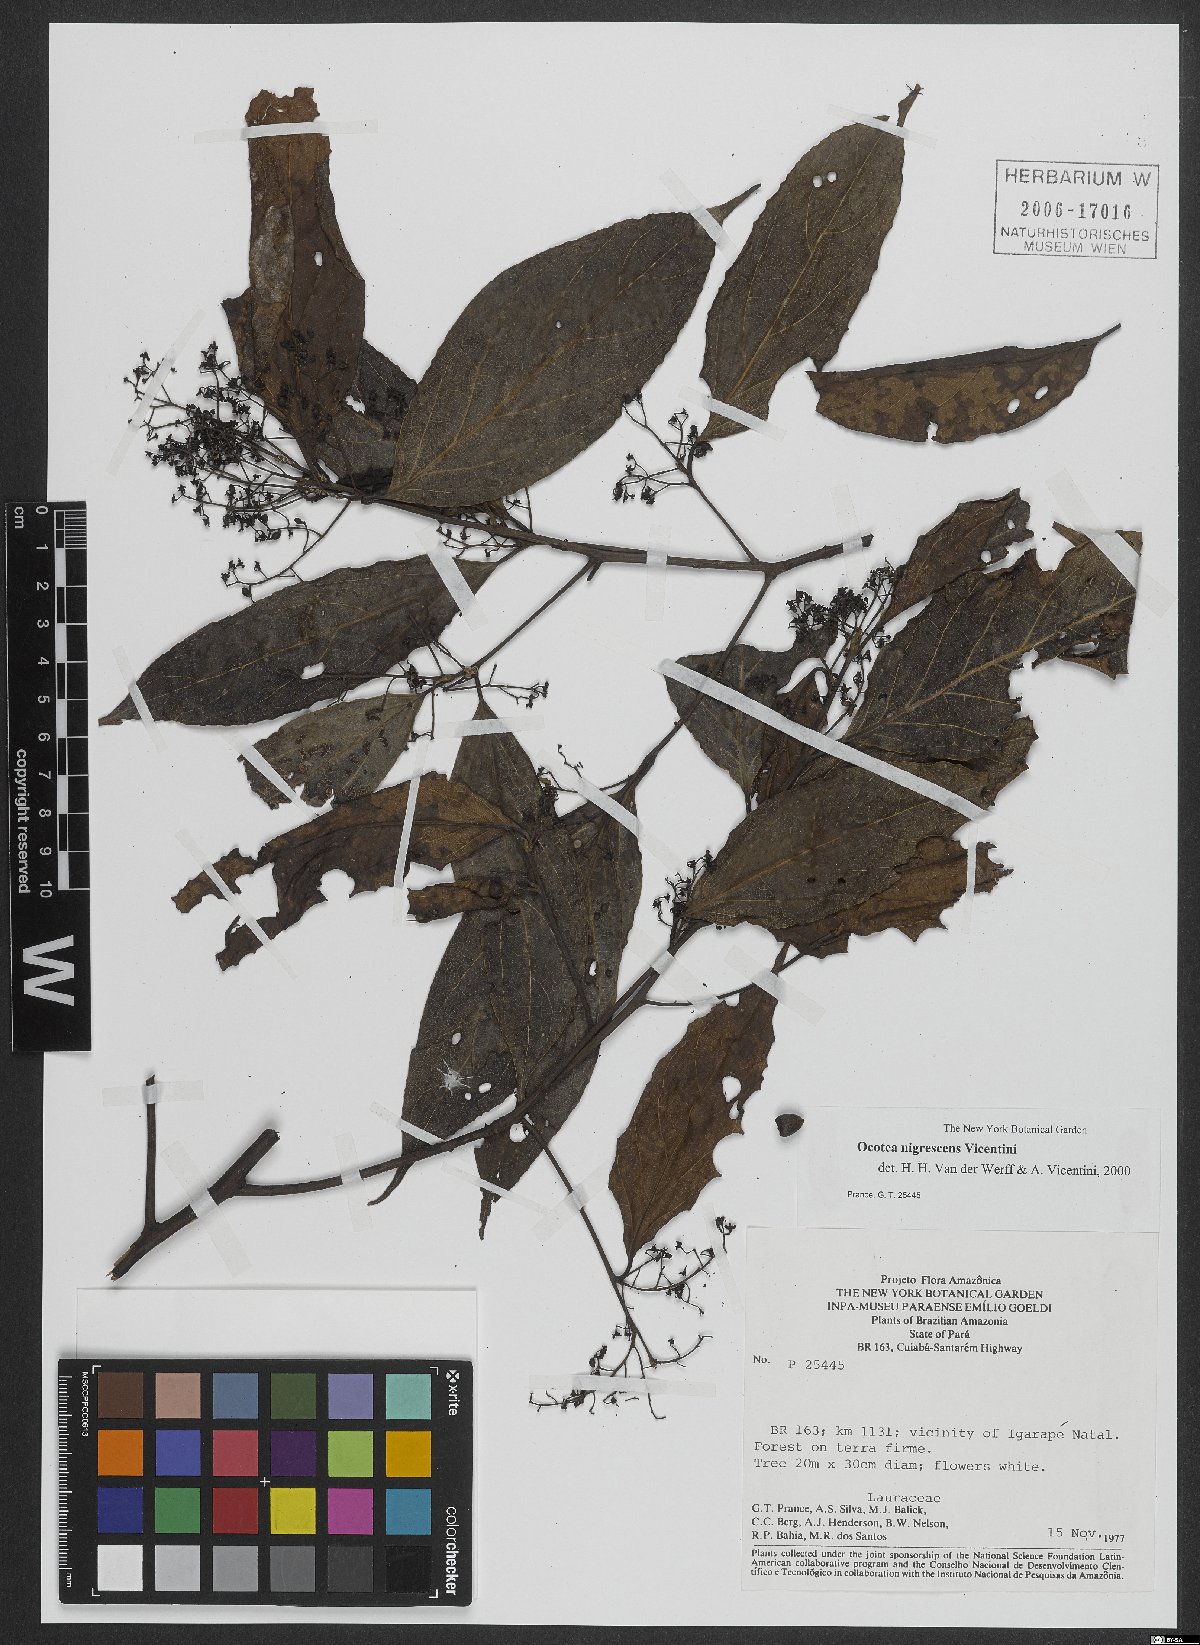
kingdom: Plantae
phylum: Tracheophyta
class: Magnoliopsida
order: Laurales
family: Lauraceae
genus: Ocotea
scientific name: Ocotea nigrescens
